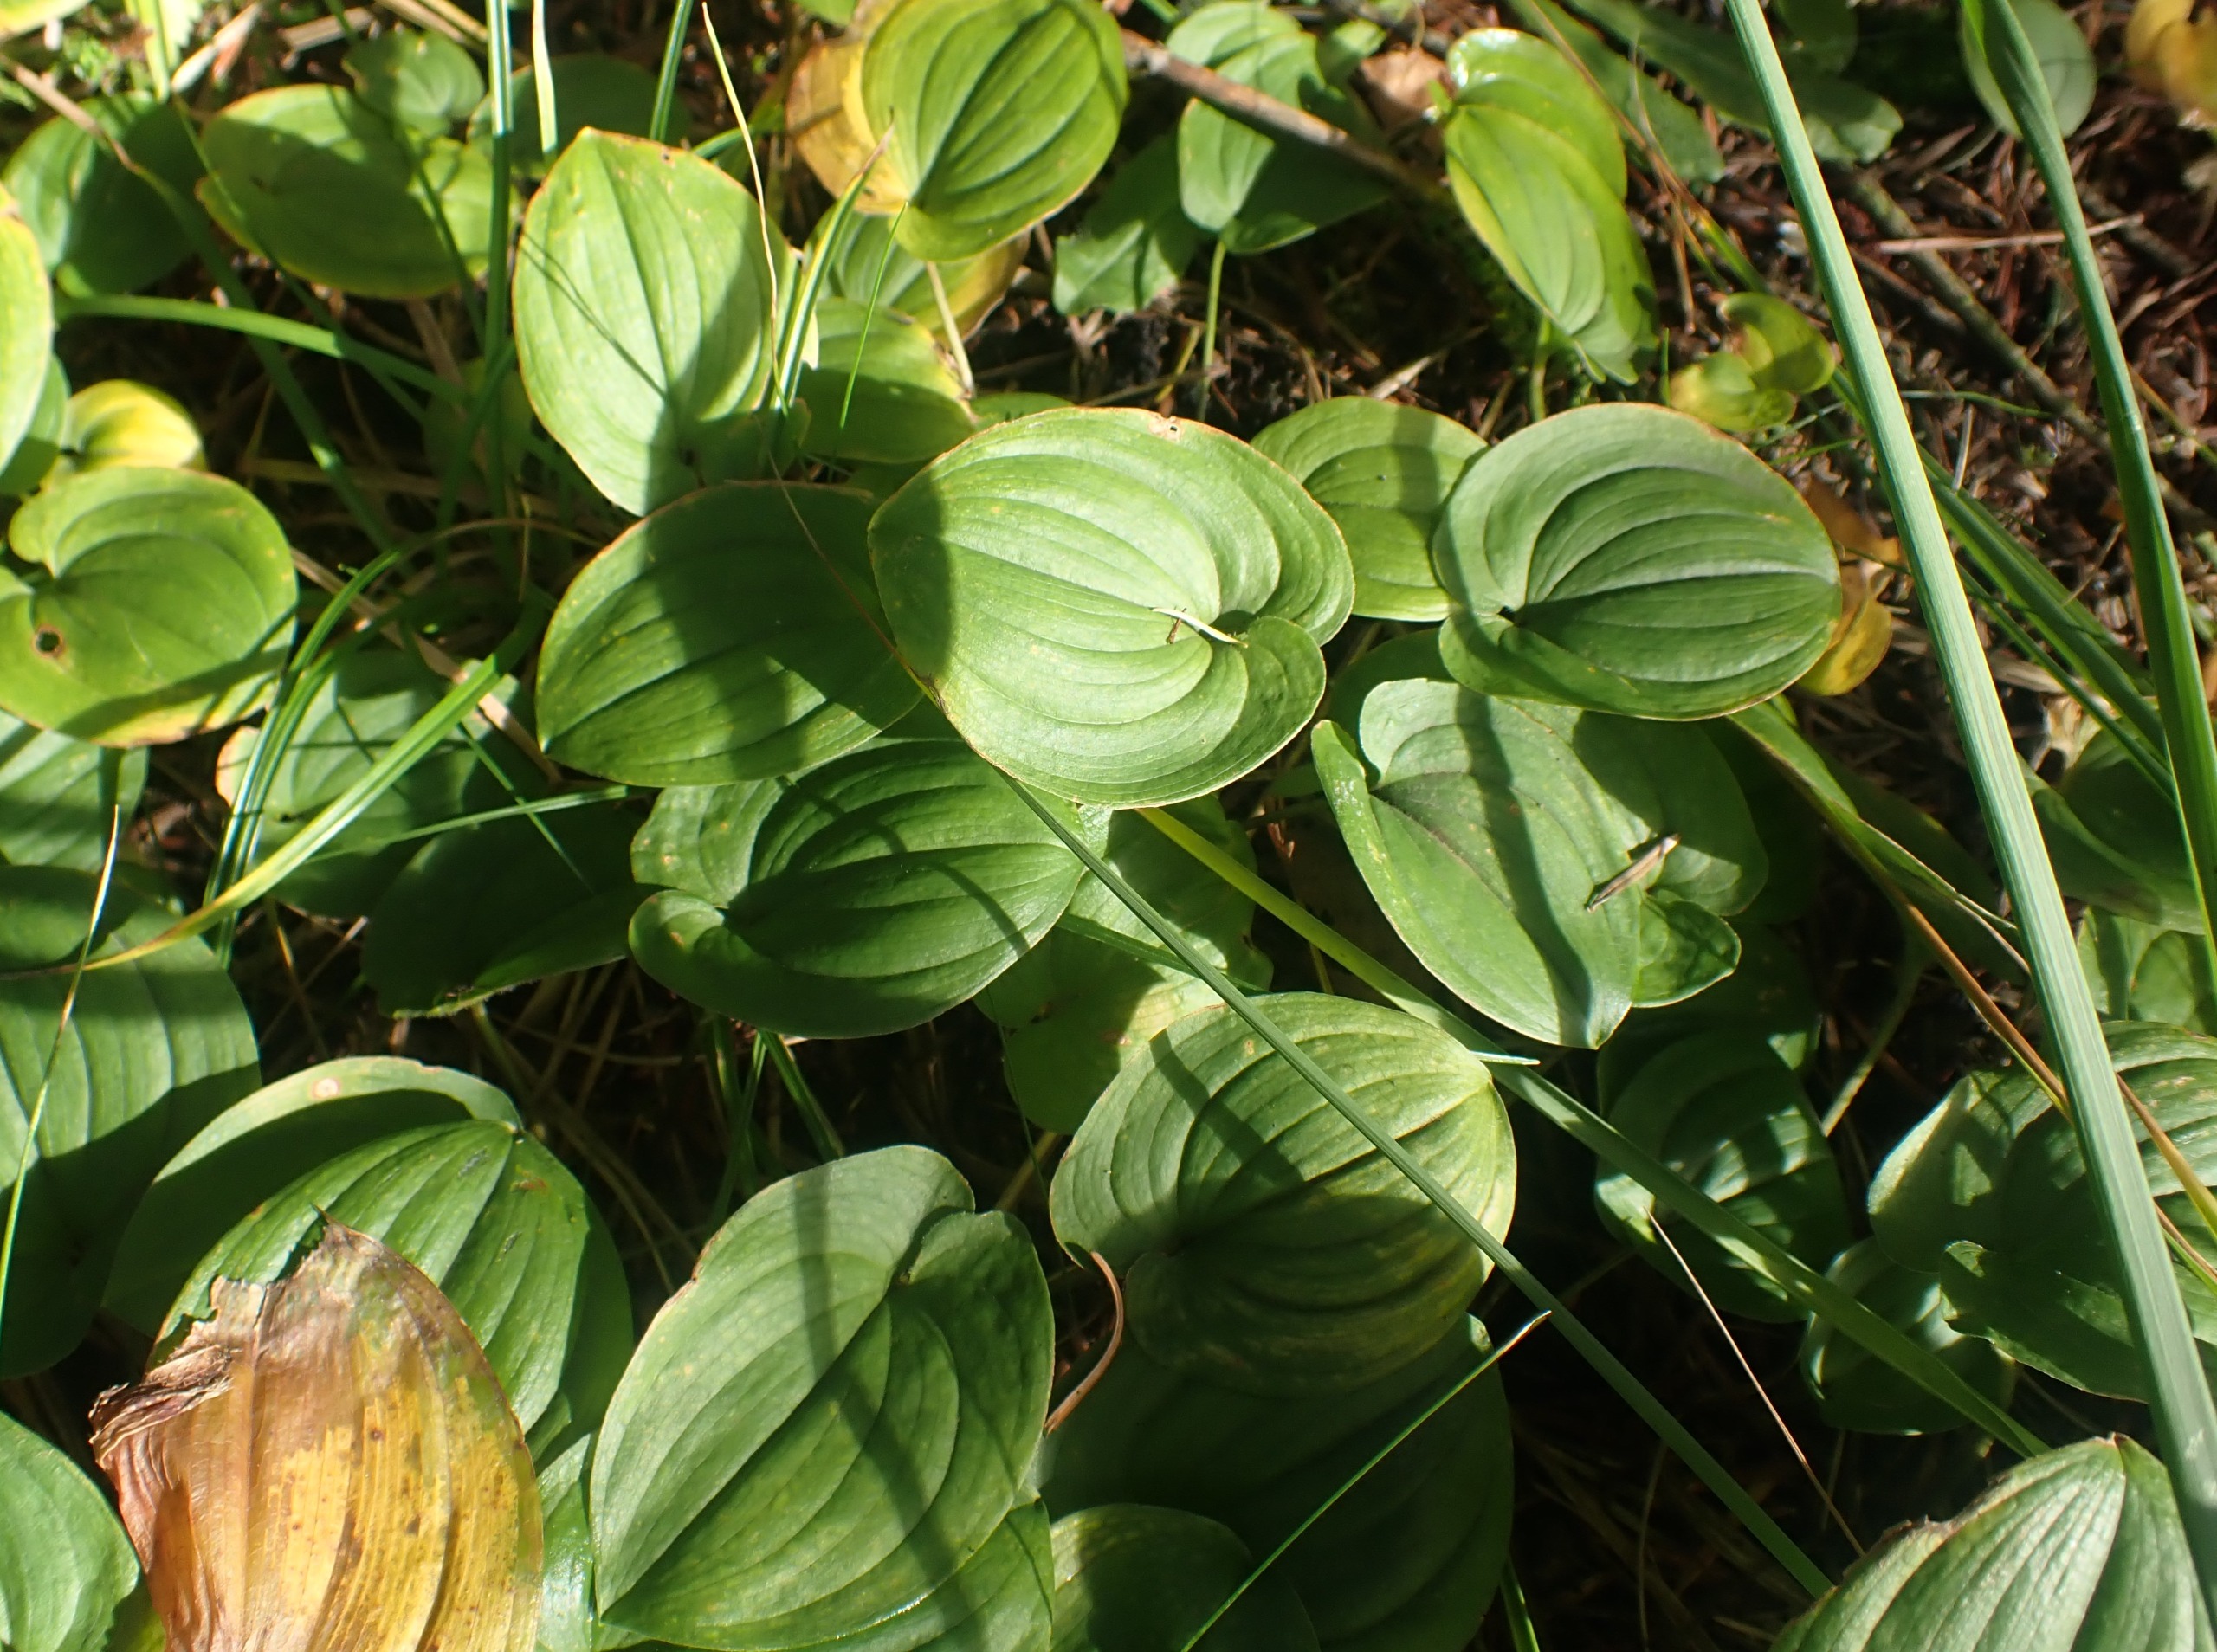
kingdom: Plantae
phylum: Tracheophyta
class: Liliopsida
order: Asparagales
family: Asparagaceae
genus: Maianthemum
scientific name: Maianthemum bifolium
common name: Majblomst
